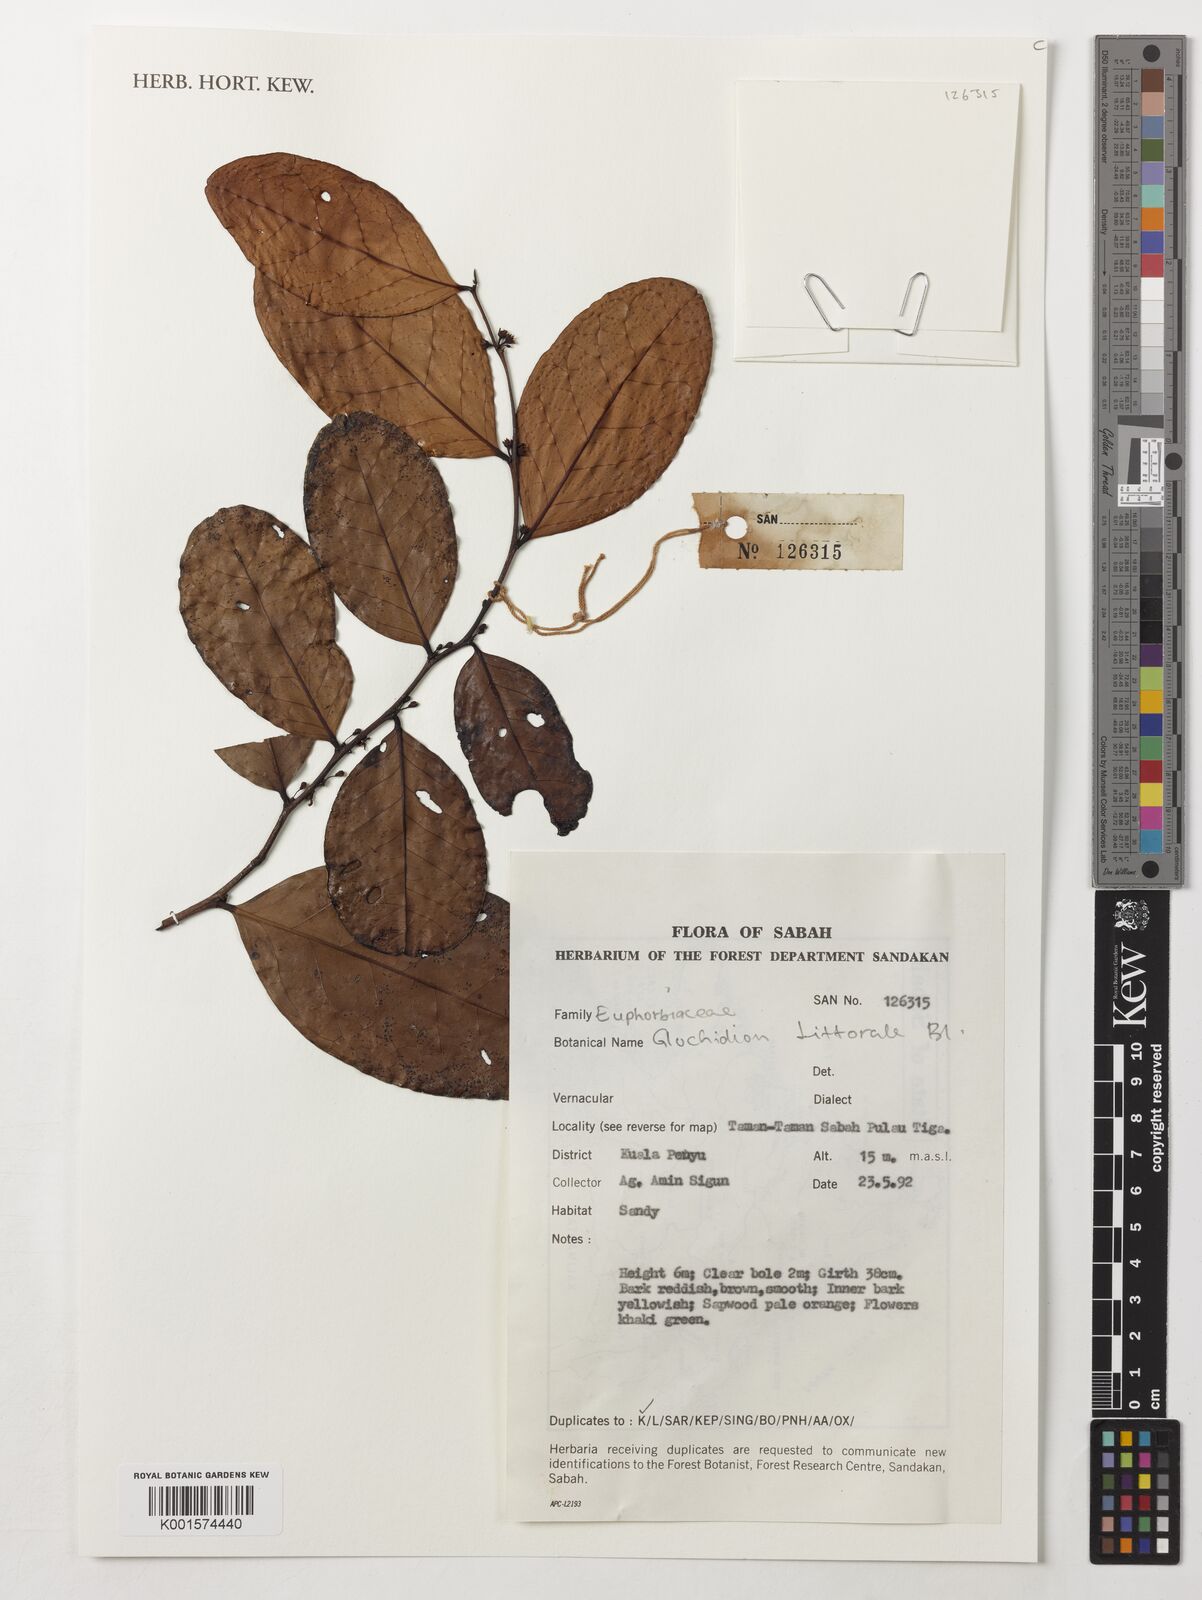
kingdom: Plantae
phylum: Tracheophyta
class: Magnoliopsida
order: Malpighiales
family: Phyllanthaceae
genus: Glochidion
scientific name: Glochidion littorale
